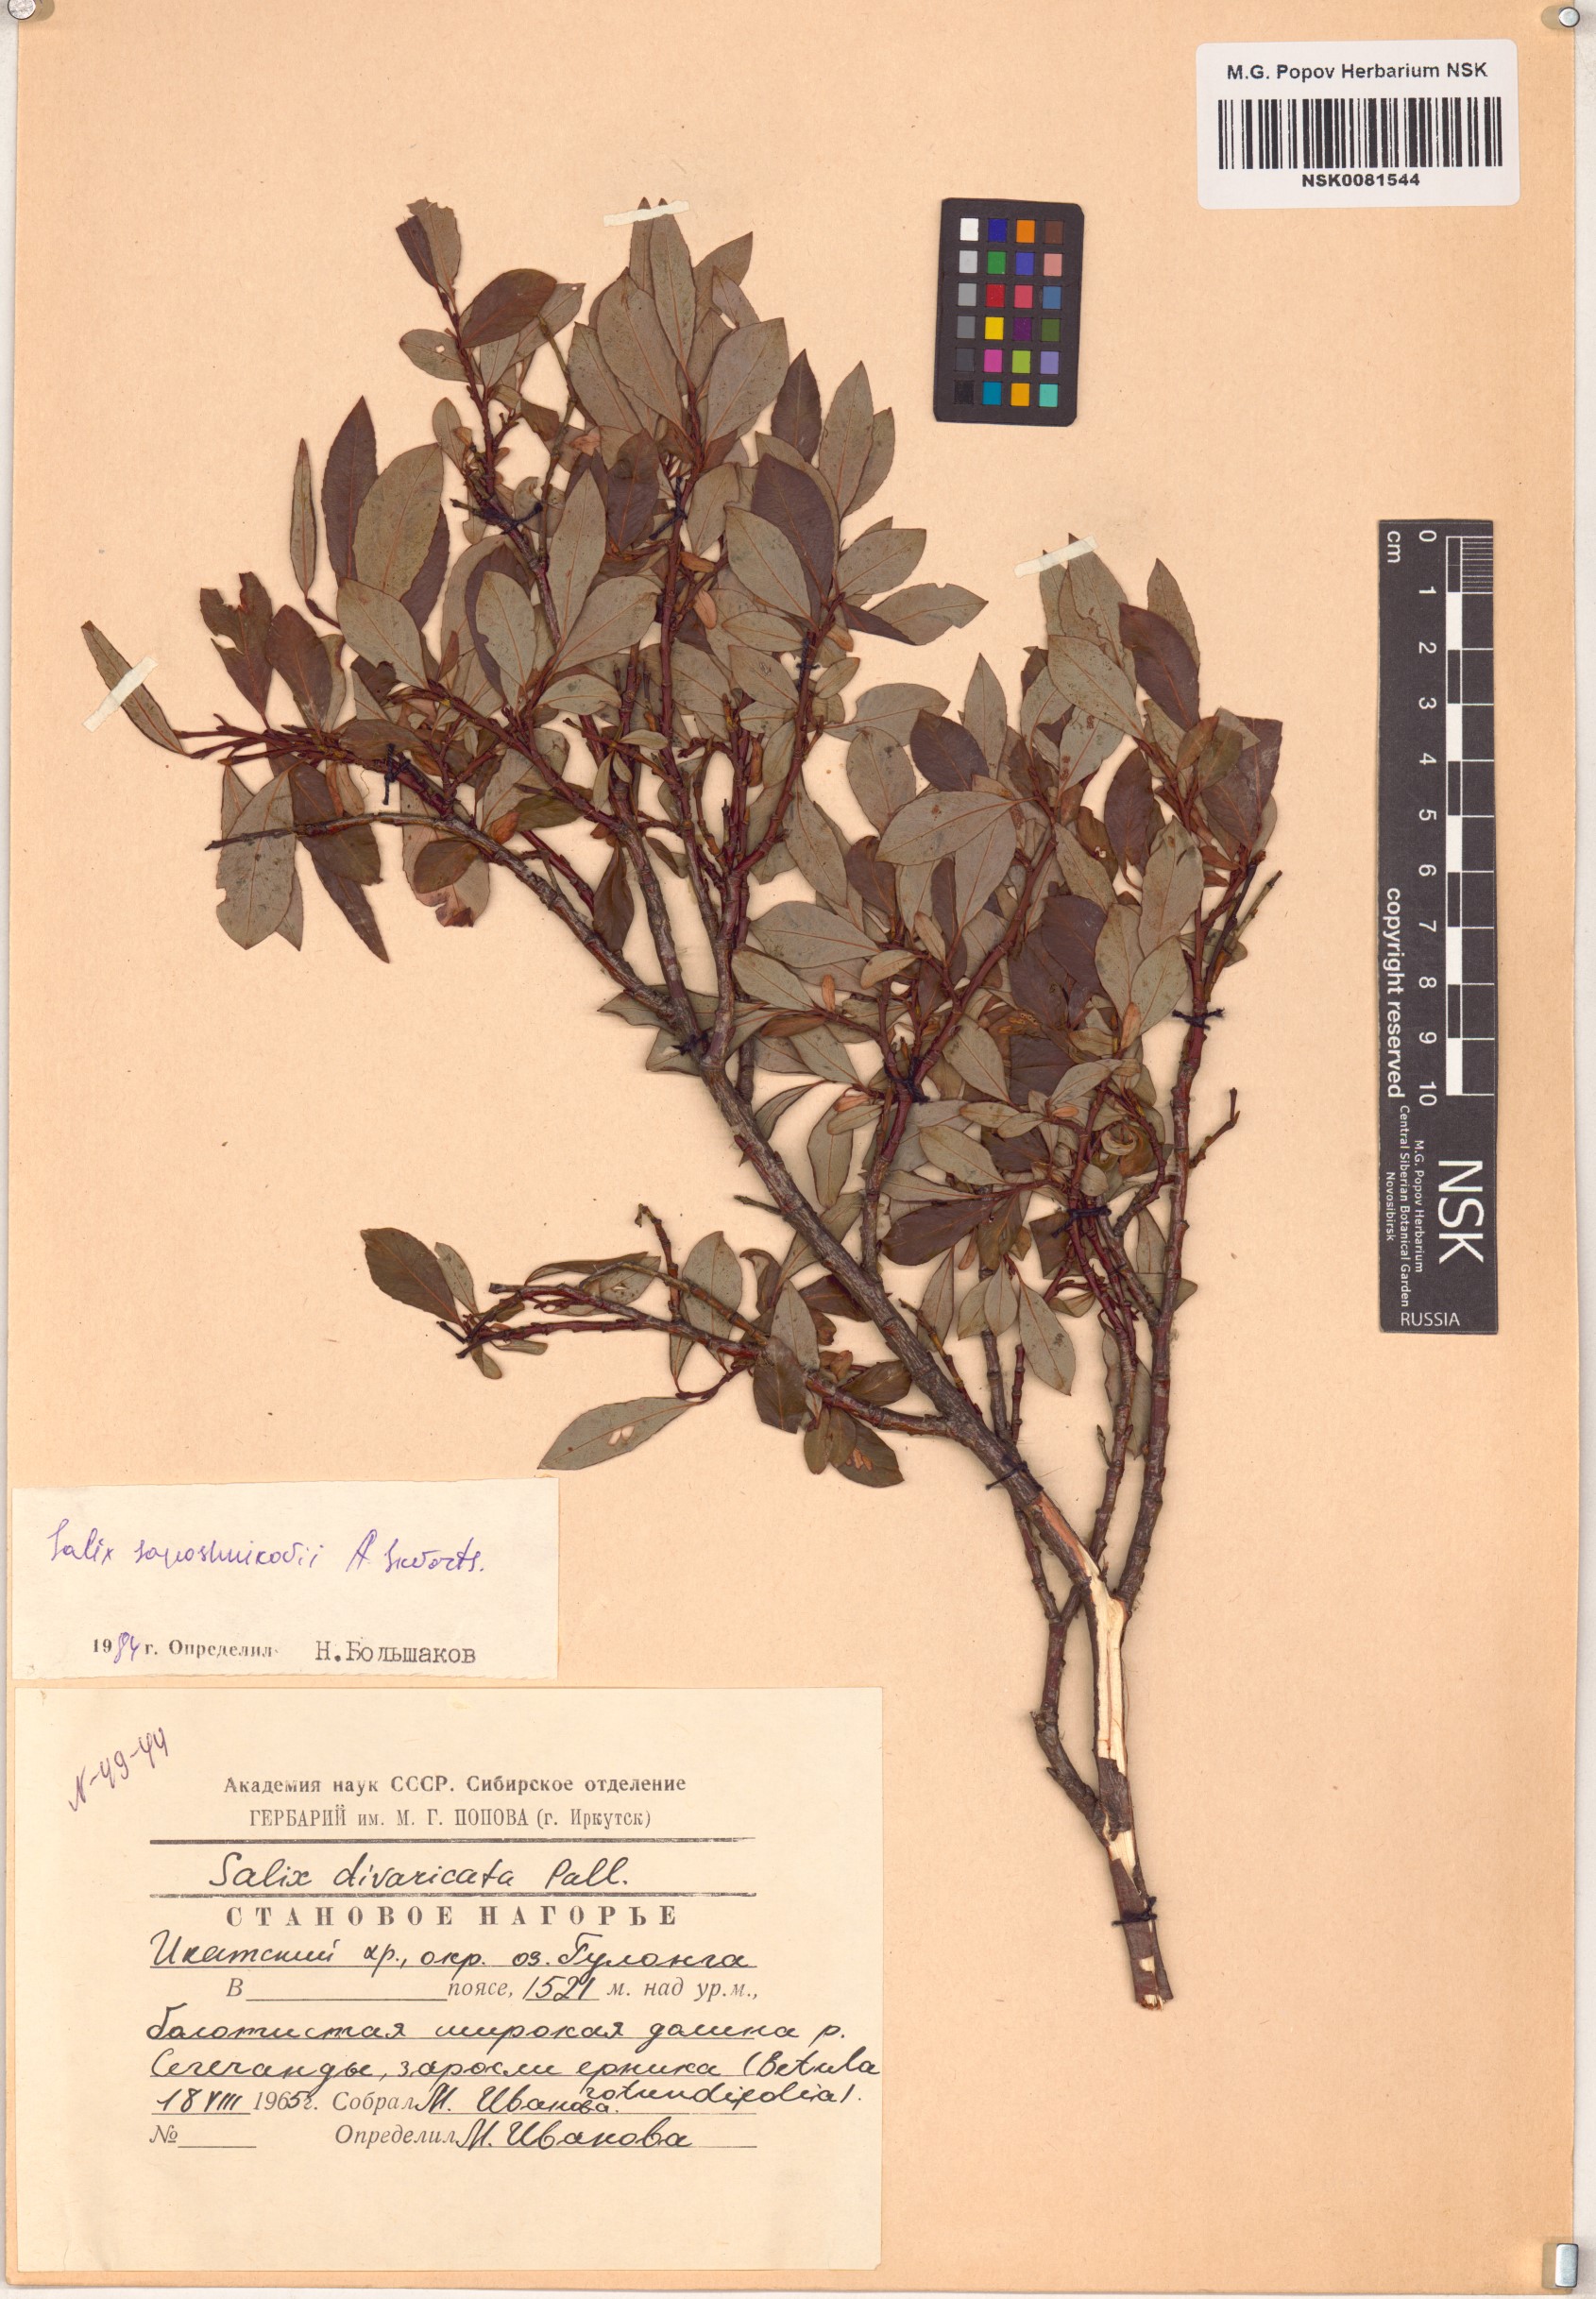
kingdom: Plantae
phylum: Tracheophyta
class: Magnoliopsida
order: Malpighiales
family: Salicaceae
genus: Salix
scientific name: Salix saposhnikovii
